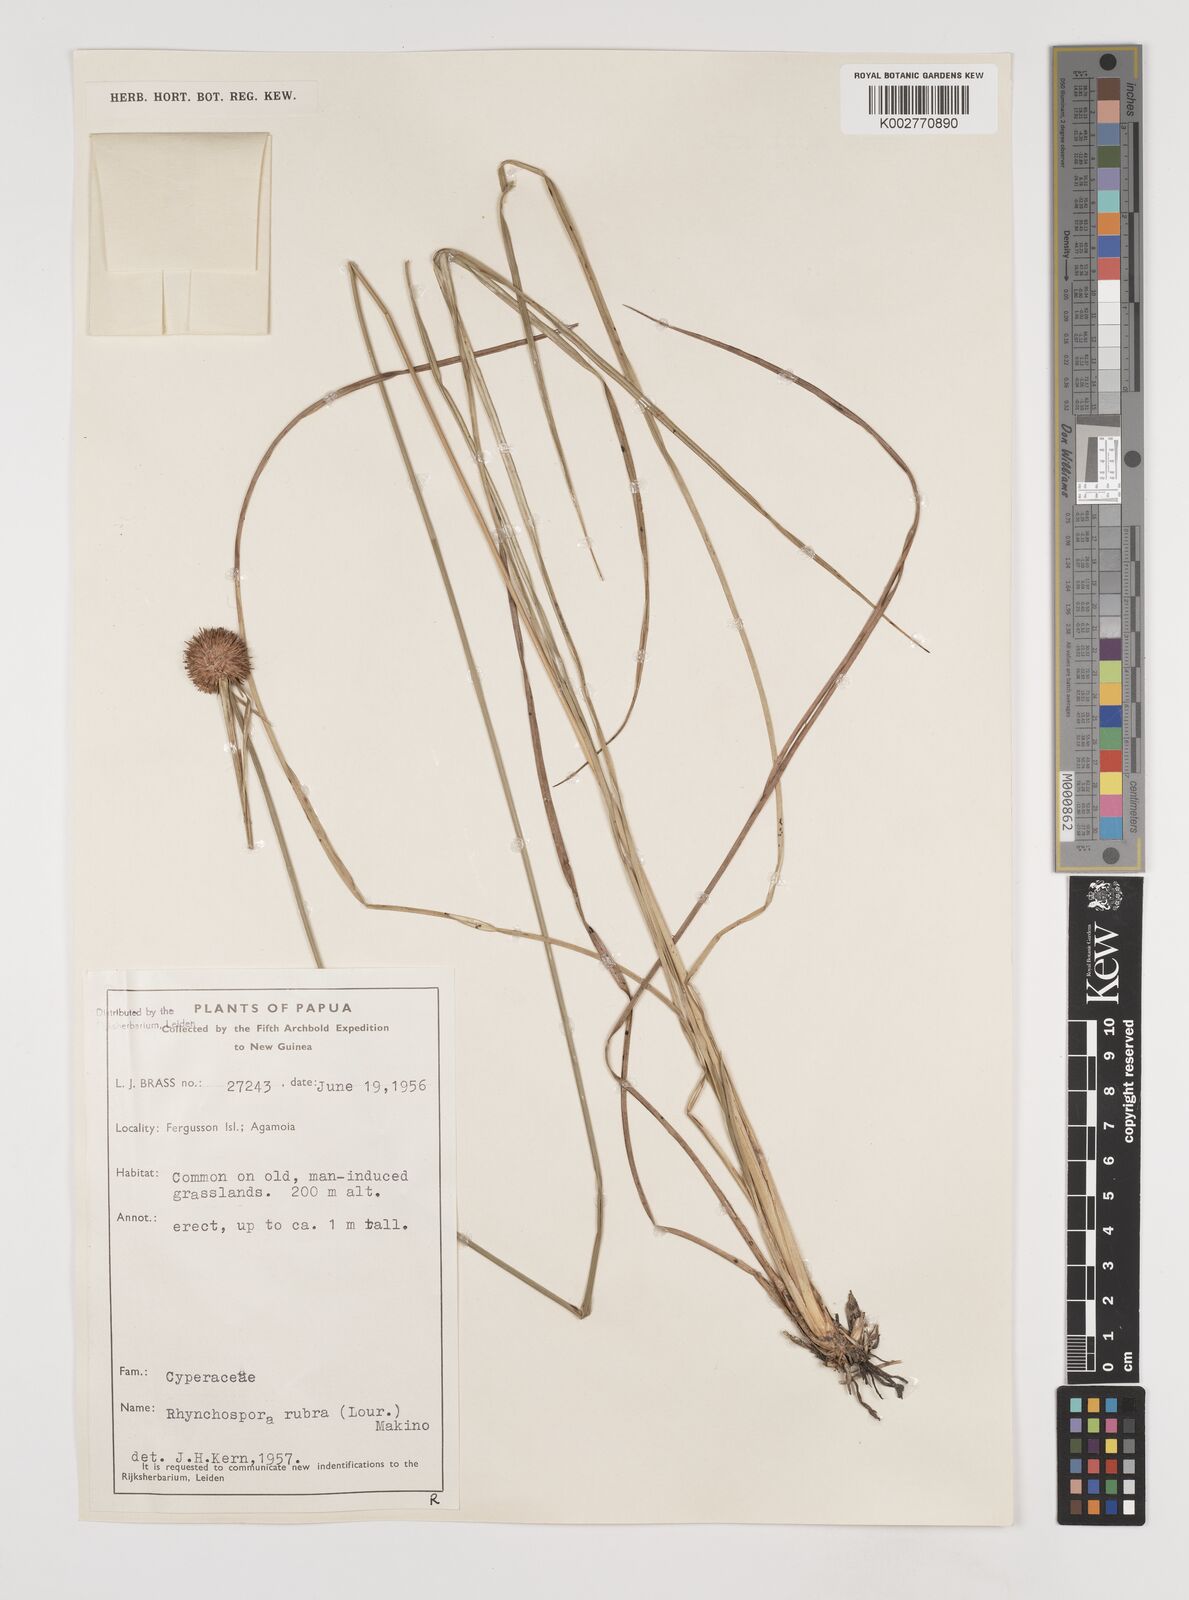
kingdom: Plantae
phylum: Tracheophyta
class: Liliopsida
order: Poales
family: Cyperaceae
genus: Rhynchospora
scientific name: Rhynchospora rubra
